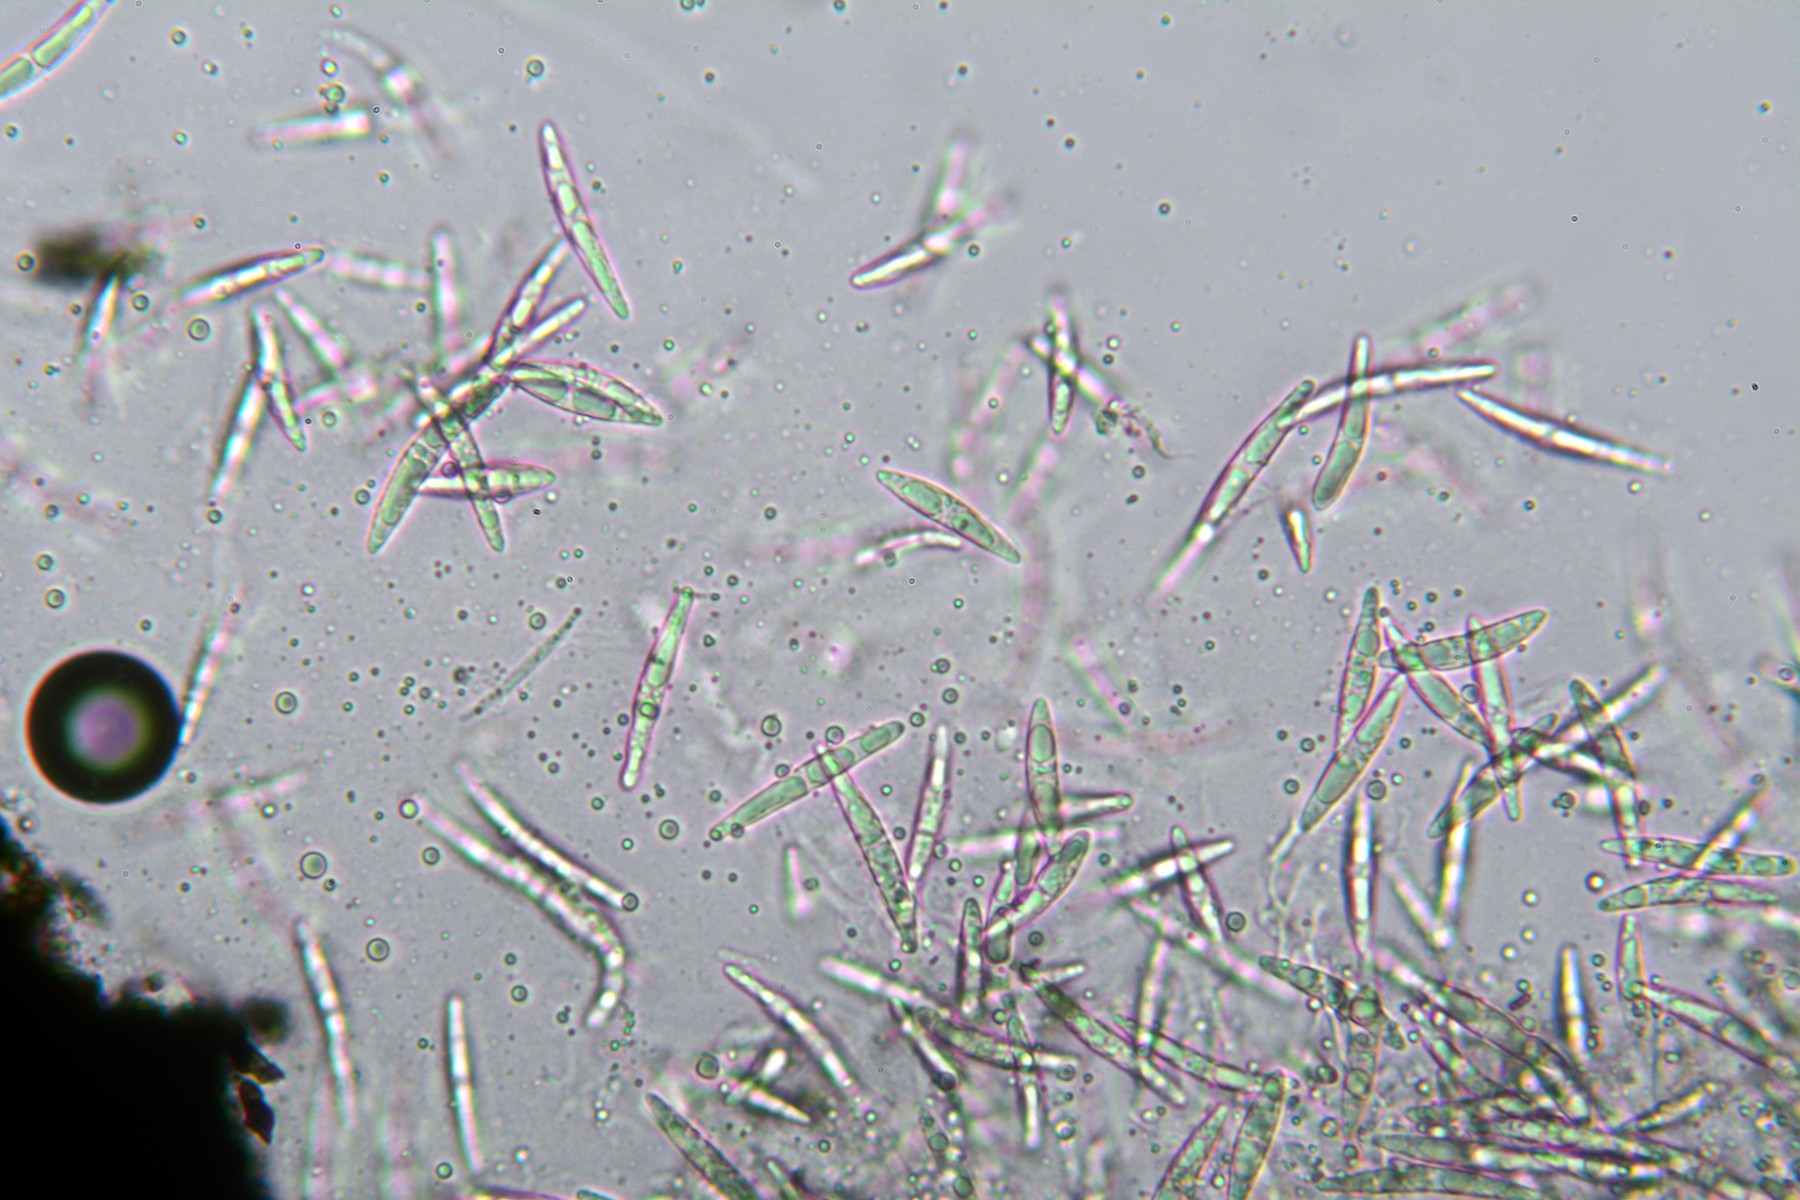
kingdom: Fungi
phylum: Ascomycota
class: Sordariomycetes
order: Coronophorales
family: Bertiaceae
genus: Bertia
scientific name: Bertia moriformis
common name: almindelig morbærkerne
